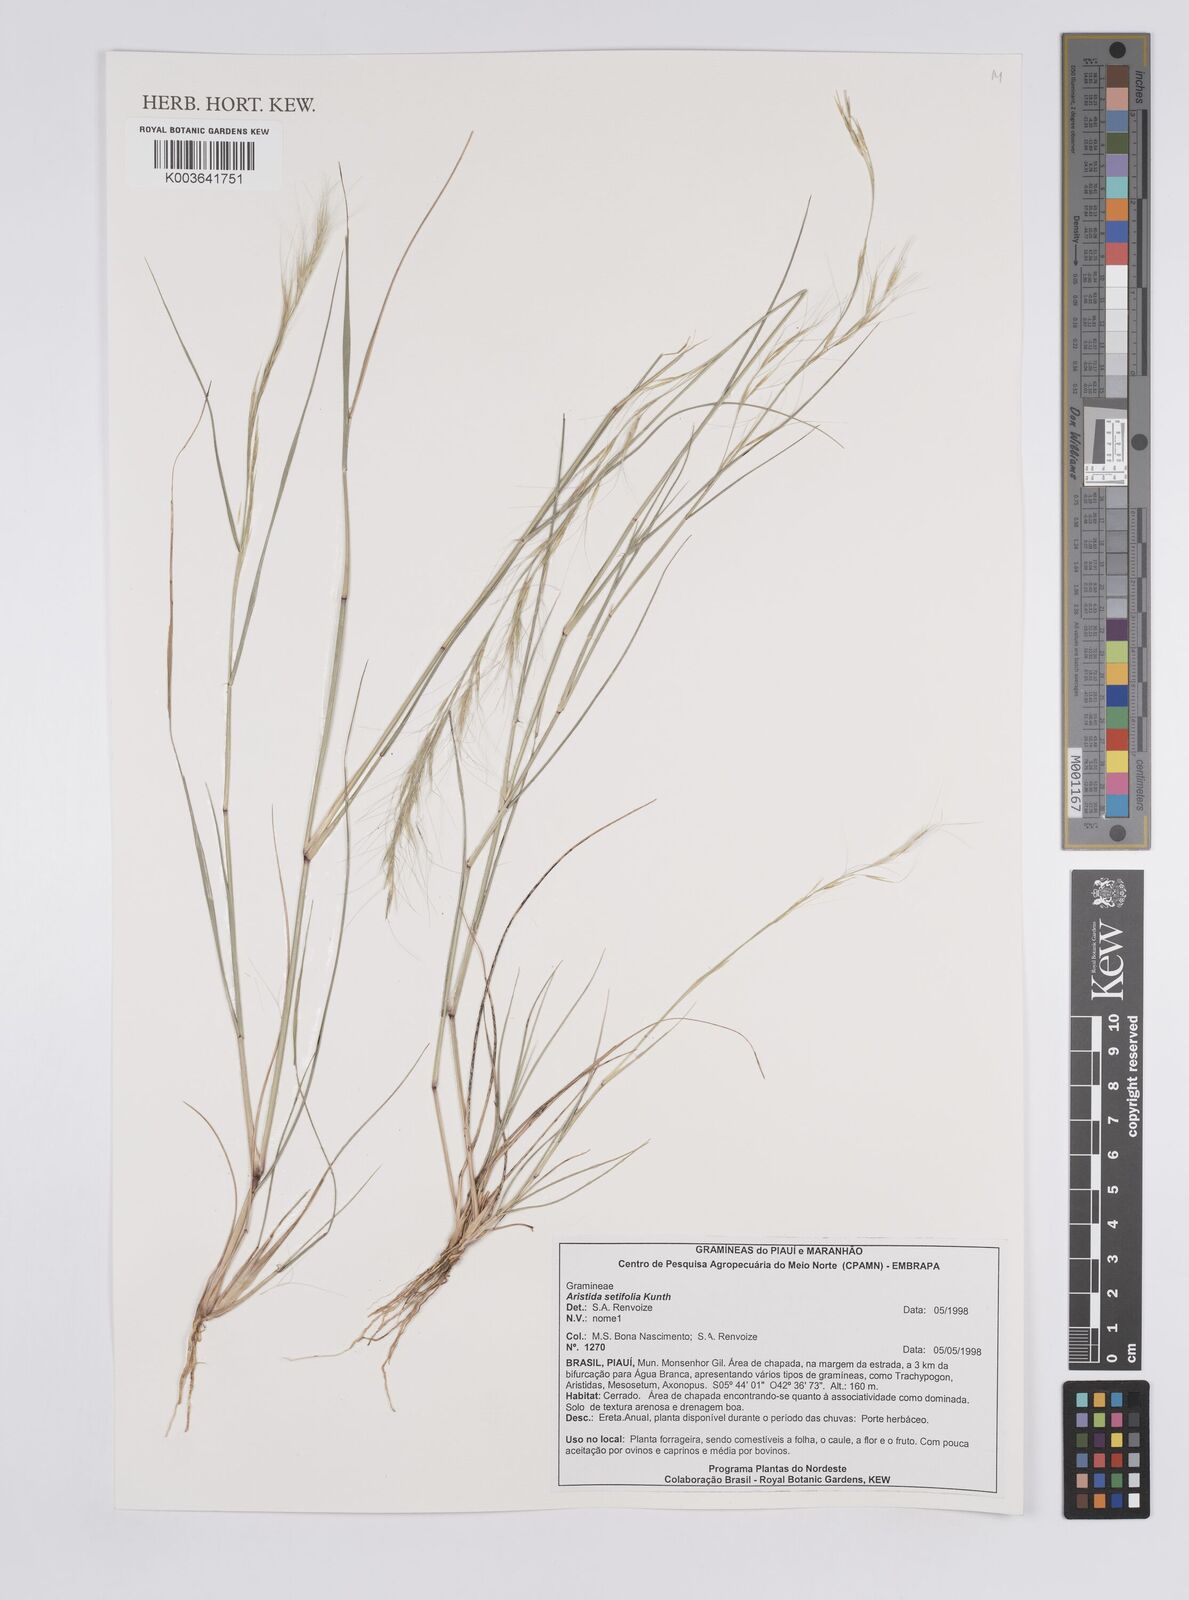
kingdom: Plantae
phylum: Tracheophyta
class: Liliopsida
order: Poales
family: Poaceae
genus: Aristida
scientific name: Aristida setifolia
